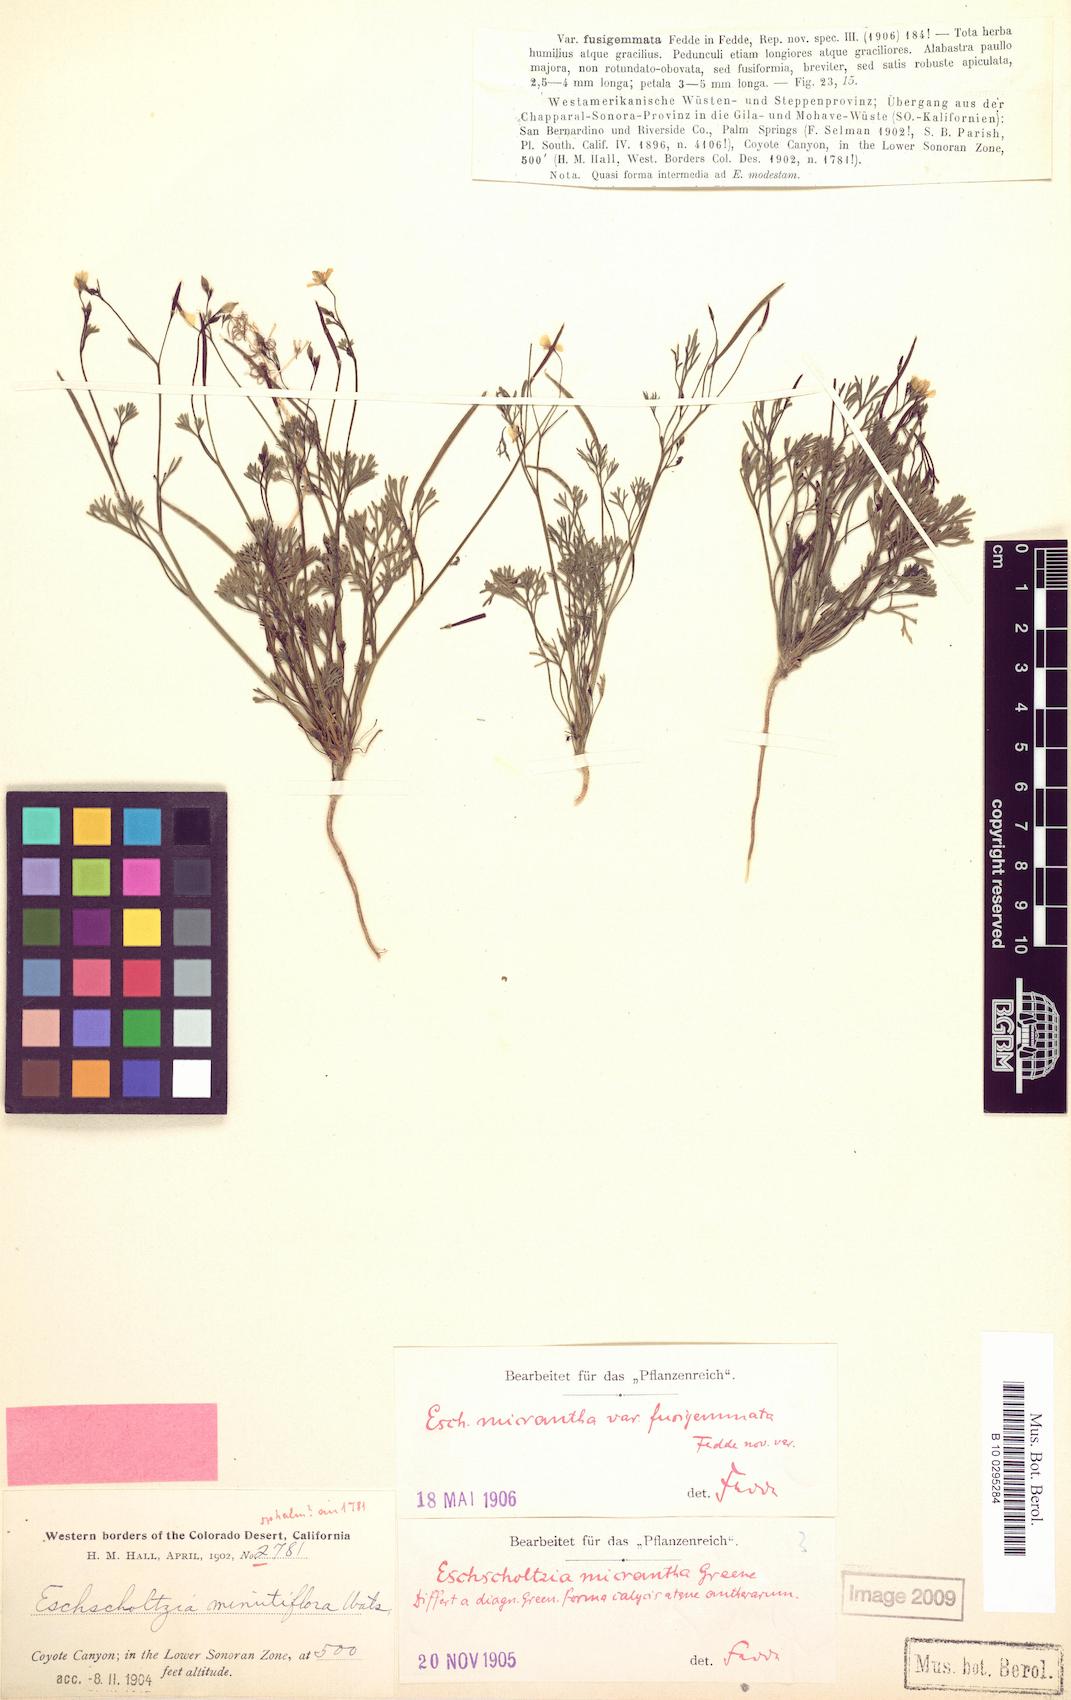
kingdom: Plantae
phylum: Tracheophyta
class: Magnoliopsida
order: Ranunculales
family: Papaveraceae
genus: Eschscholzia
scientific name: Eschscholzia minutiflora
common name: Small-flower california-poppy
